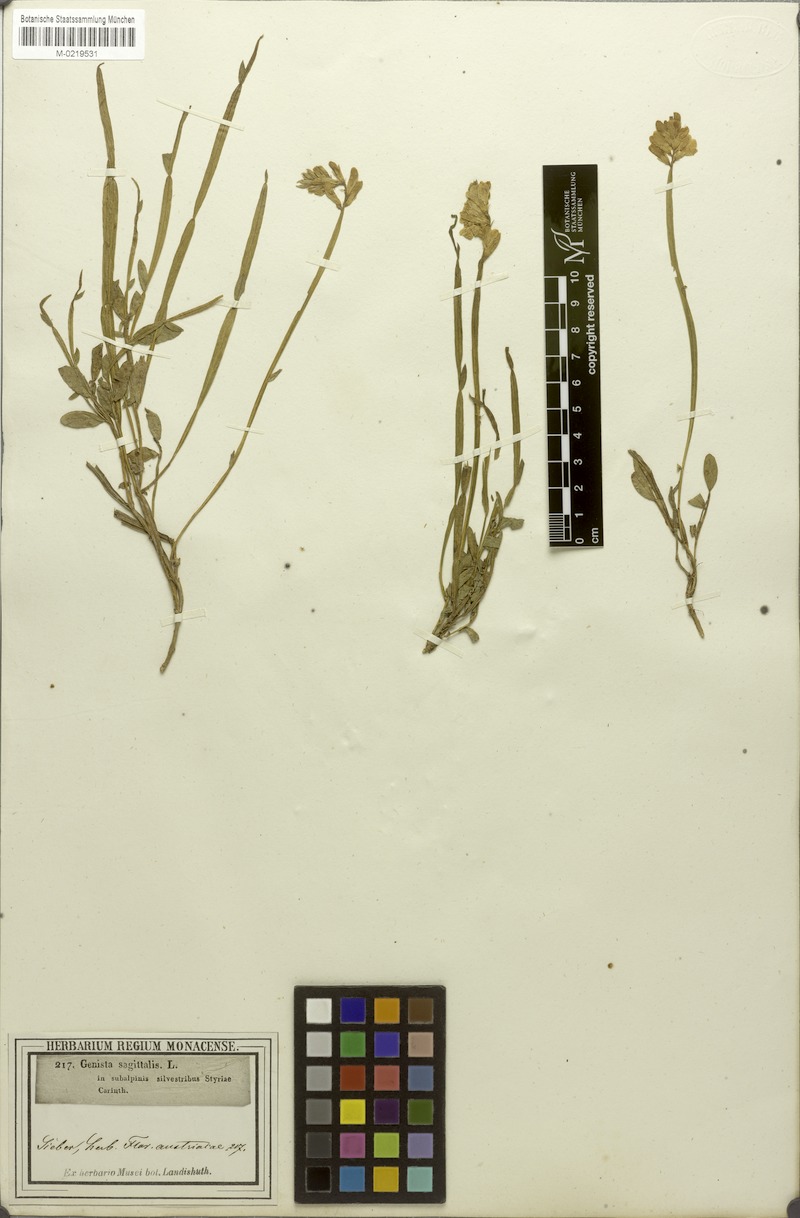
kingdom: Plantae
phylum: Tracheophyta
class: Magnoliopsida
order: Fabales
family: Fabaceae
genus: Genista
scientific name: Genista sagittalis
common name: Winged greenweed
